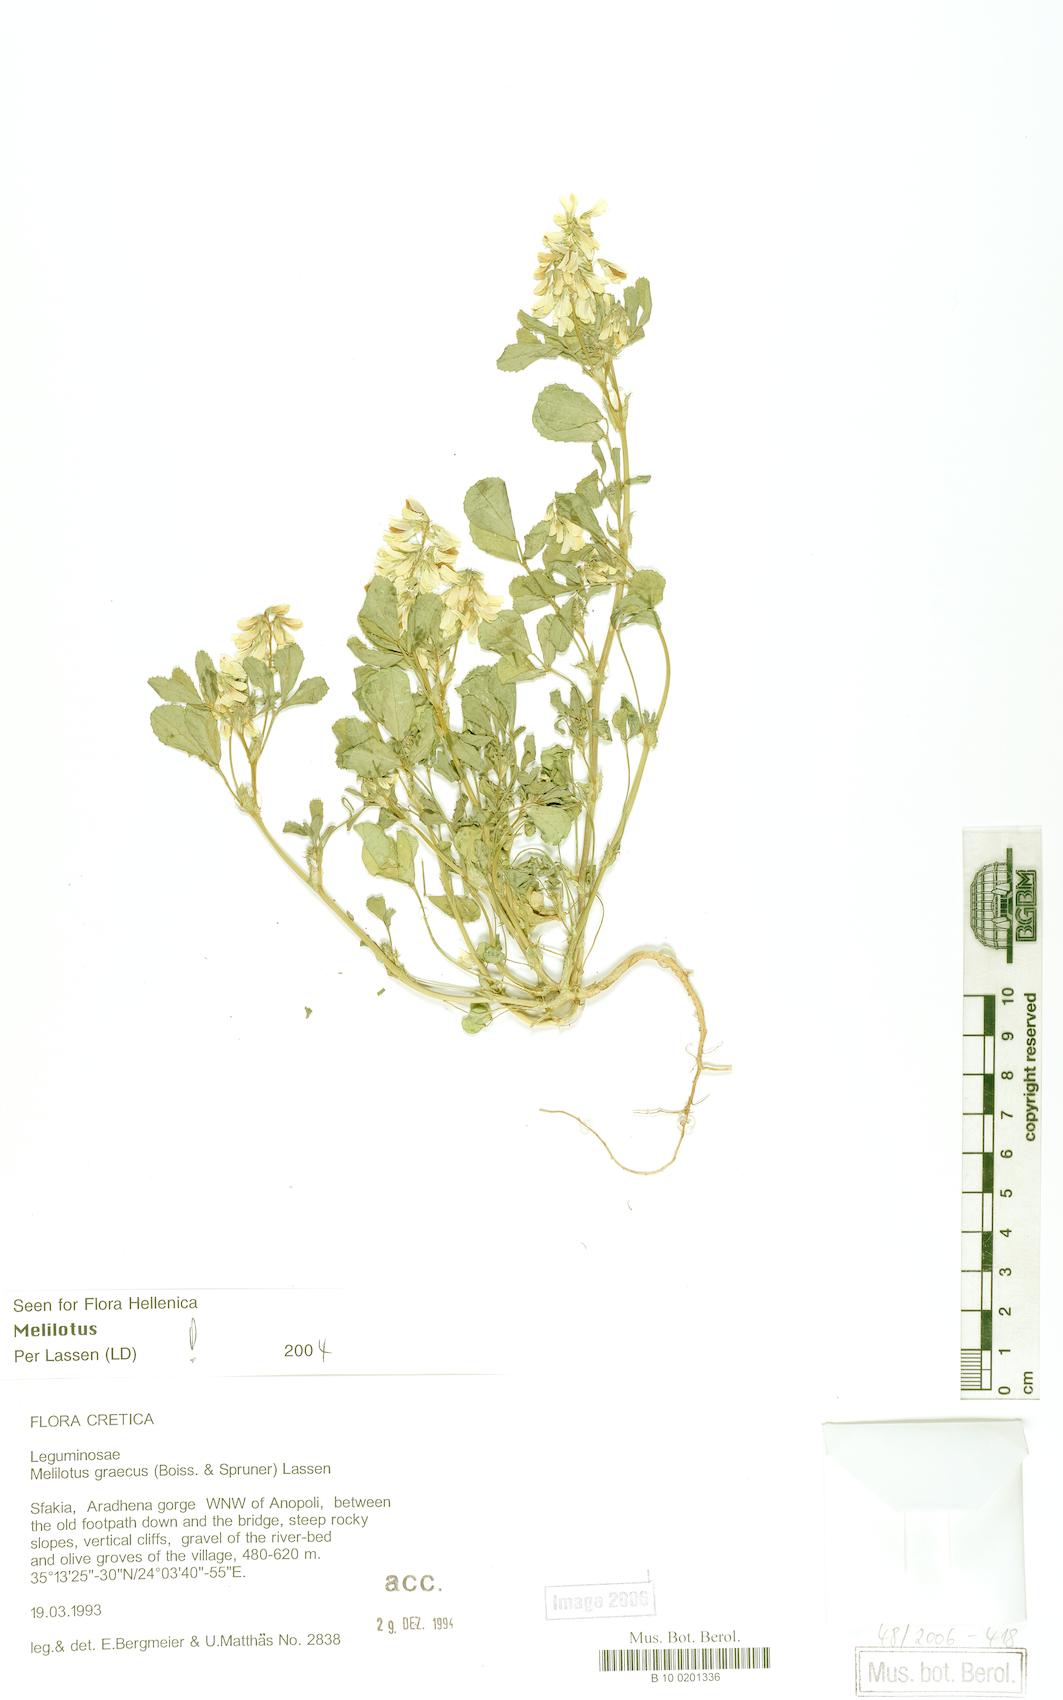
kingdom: Plantae
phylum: Tracheophyta
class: Magnoliopsida
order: Fabales
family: Fabaceae
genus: Trigonella
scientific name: Trigonella graeca
